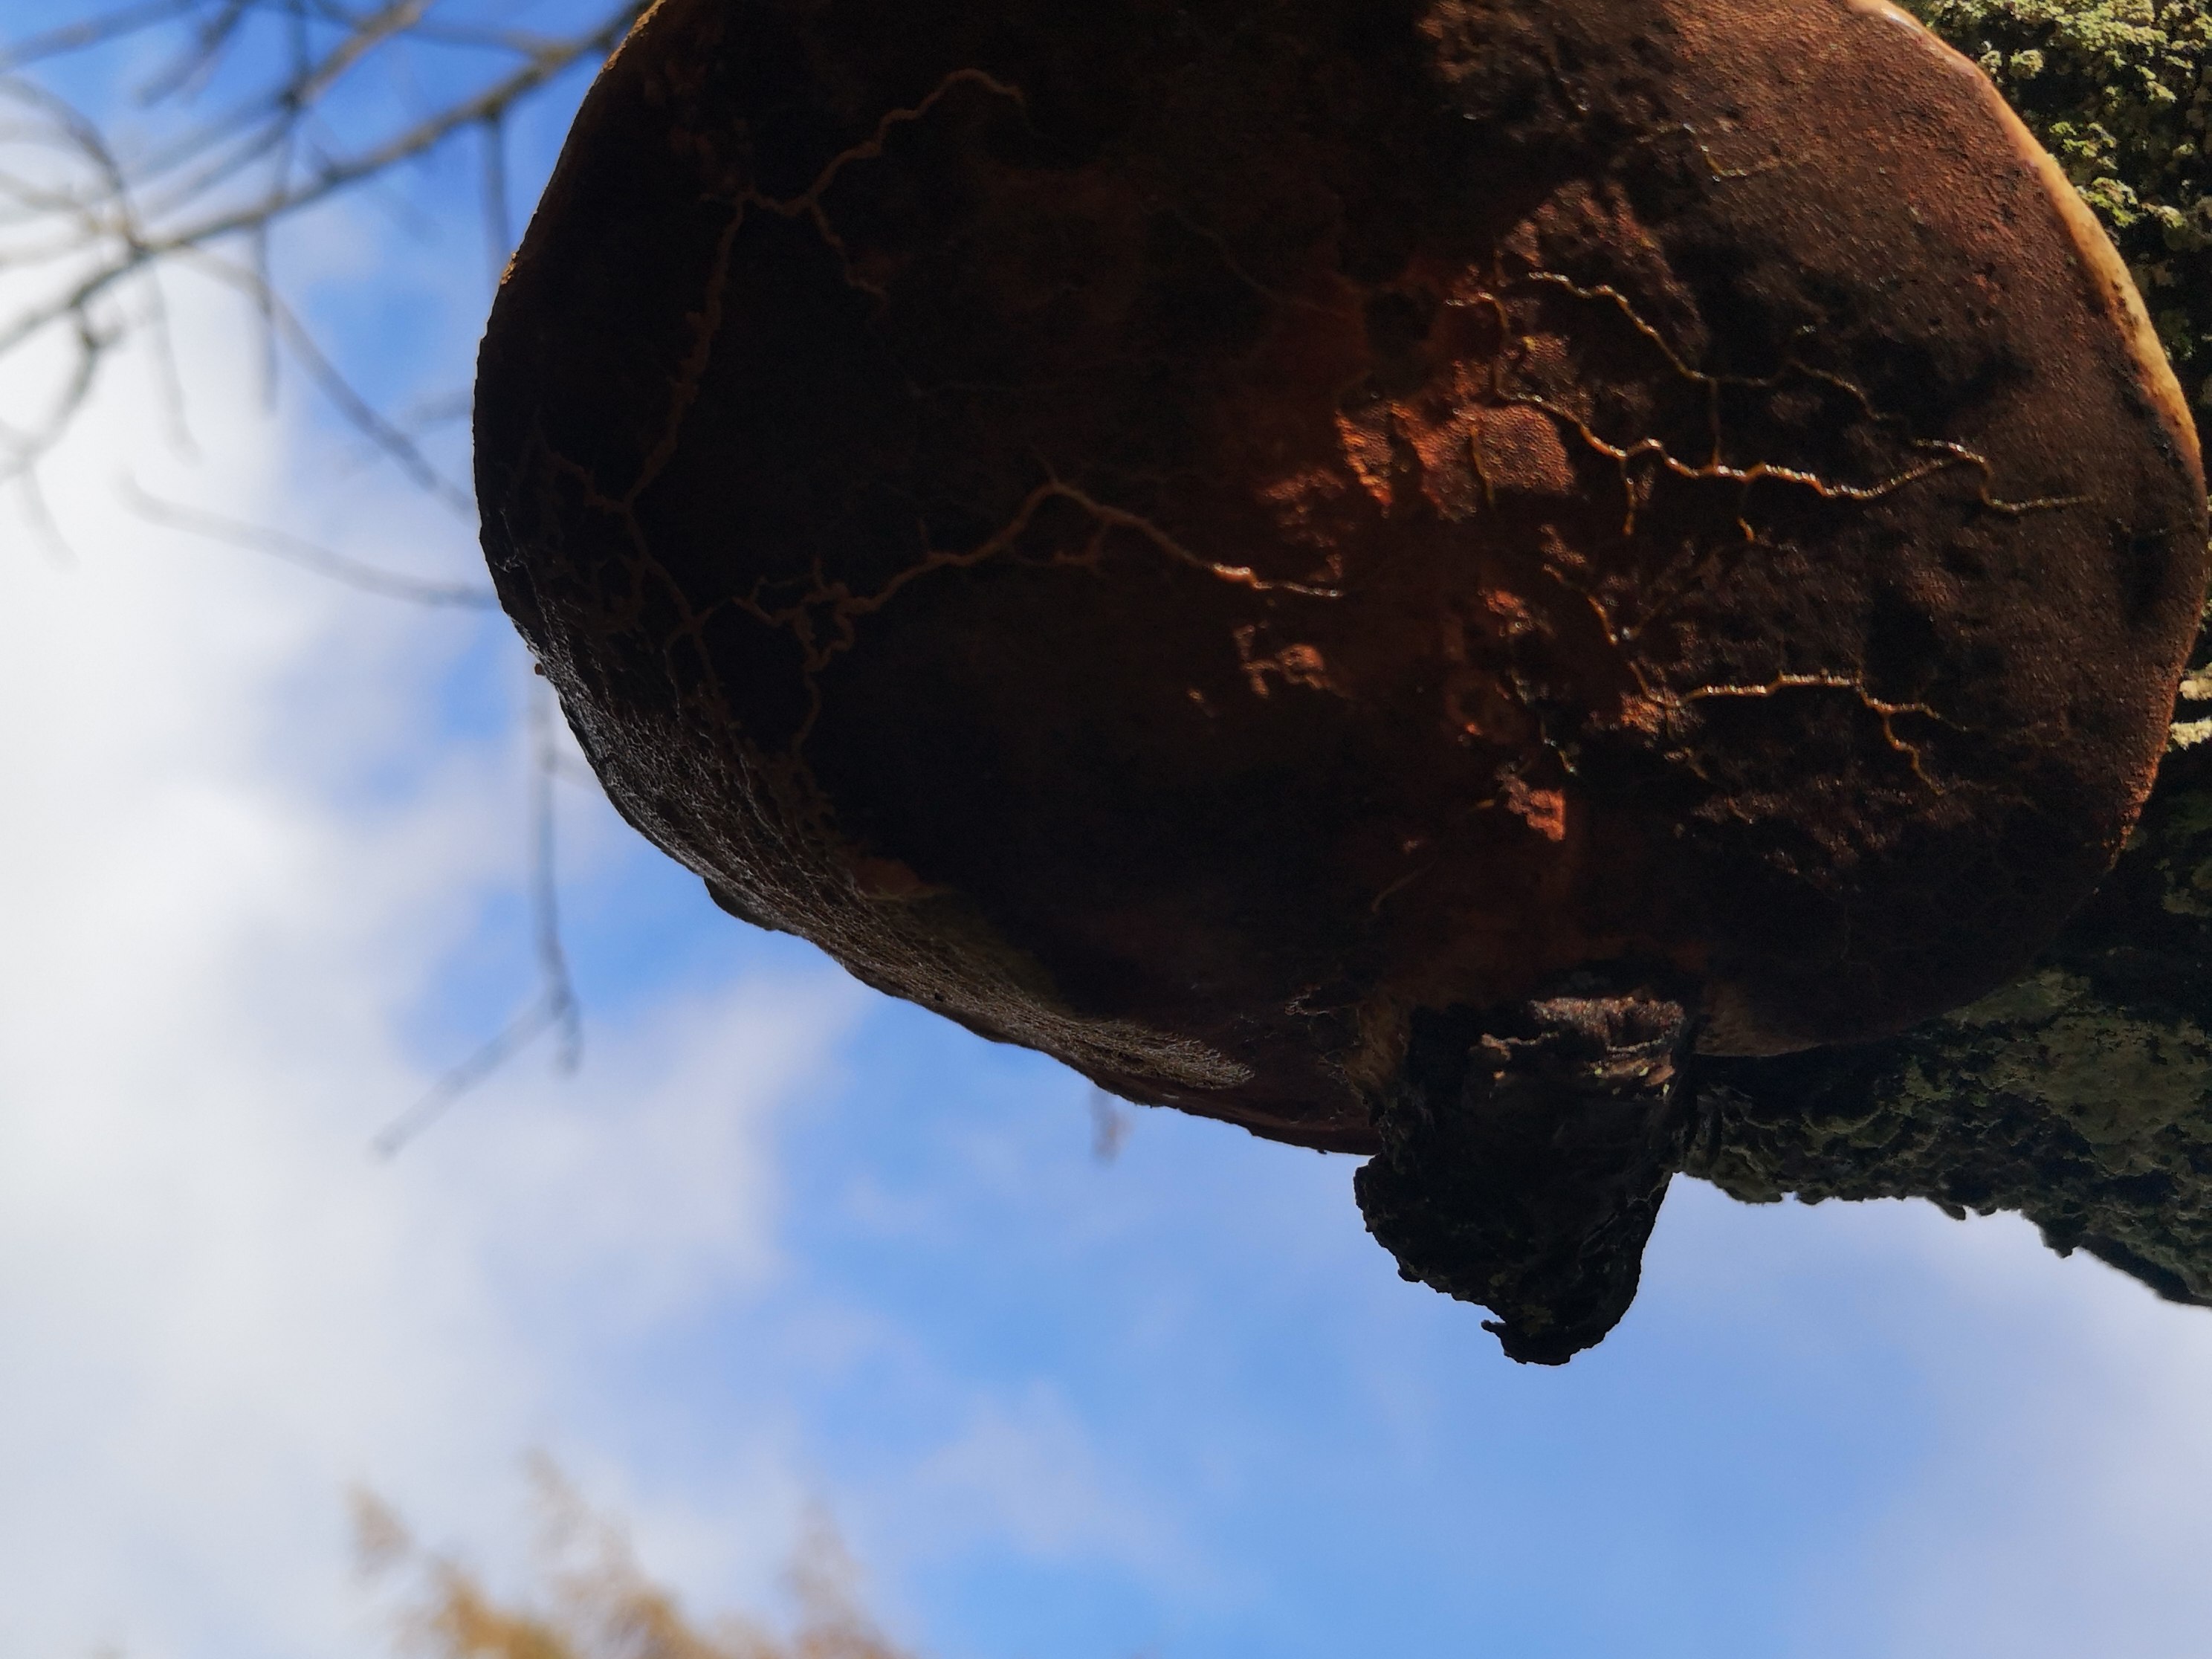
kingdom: Fungi
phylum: Basidiomycota
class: Agaricomycetes
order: Hymenochaetales
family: Hymenochaetaceae
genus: Phellinus
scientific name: Phellinus pomaceus
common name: blomme-ildporesvamp
